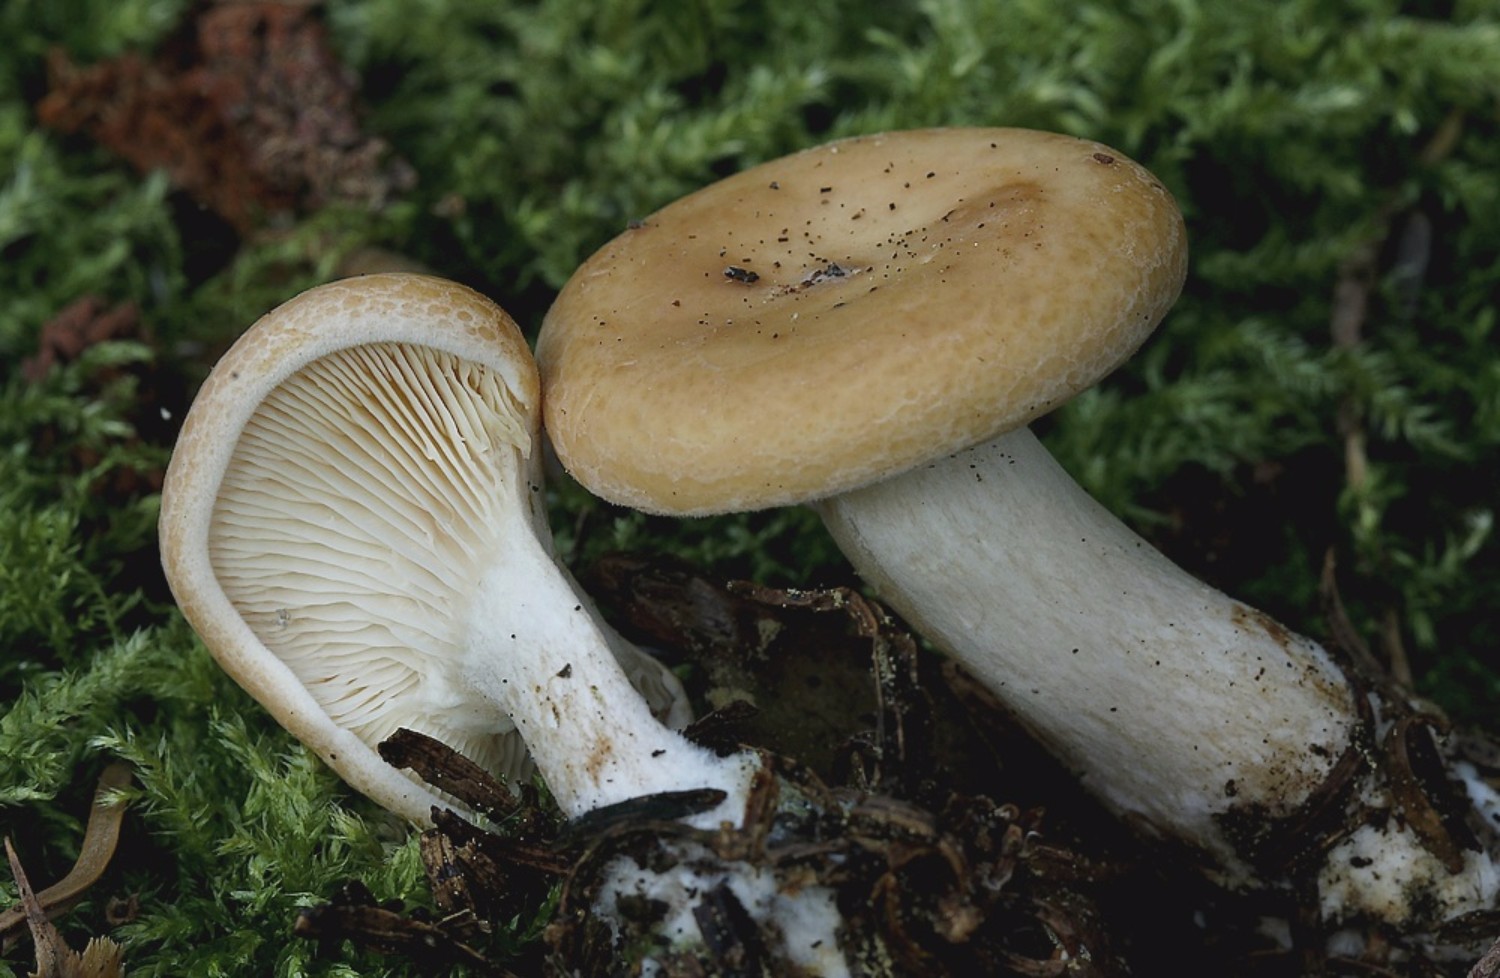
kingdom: Fungi
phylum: Basidiomycota
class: Agaricomycetes
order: Agaricales
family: Tricholomataceae
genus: Paralepista
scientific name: Paralepista gilva
